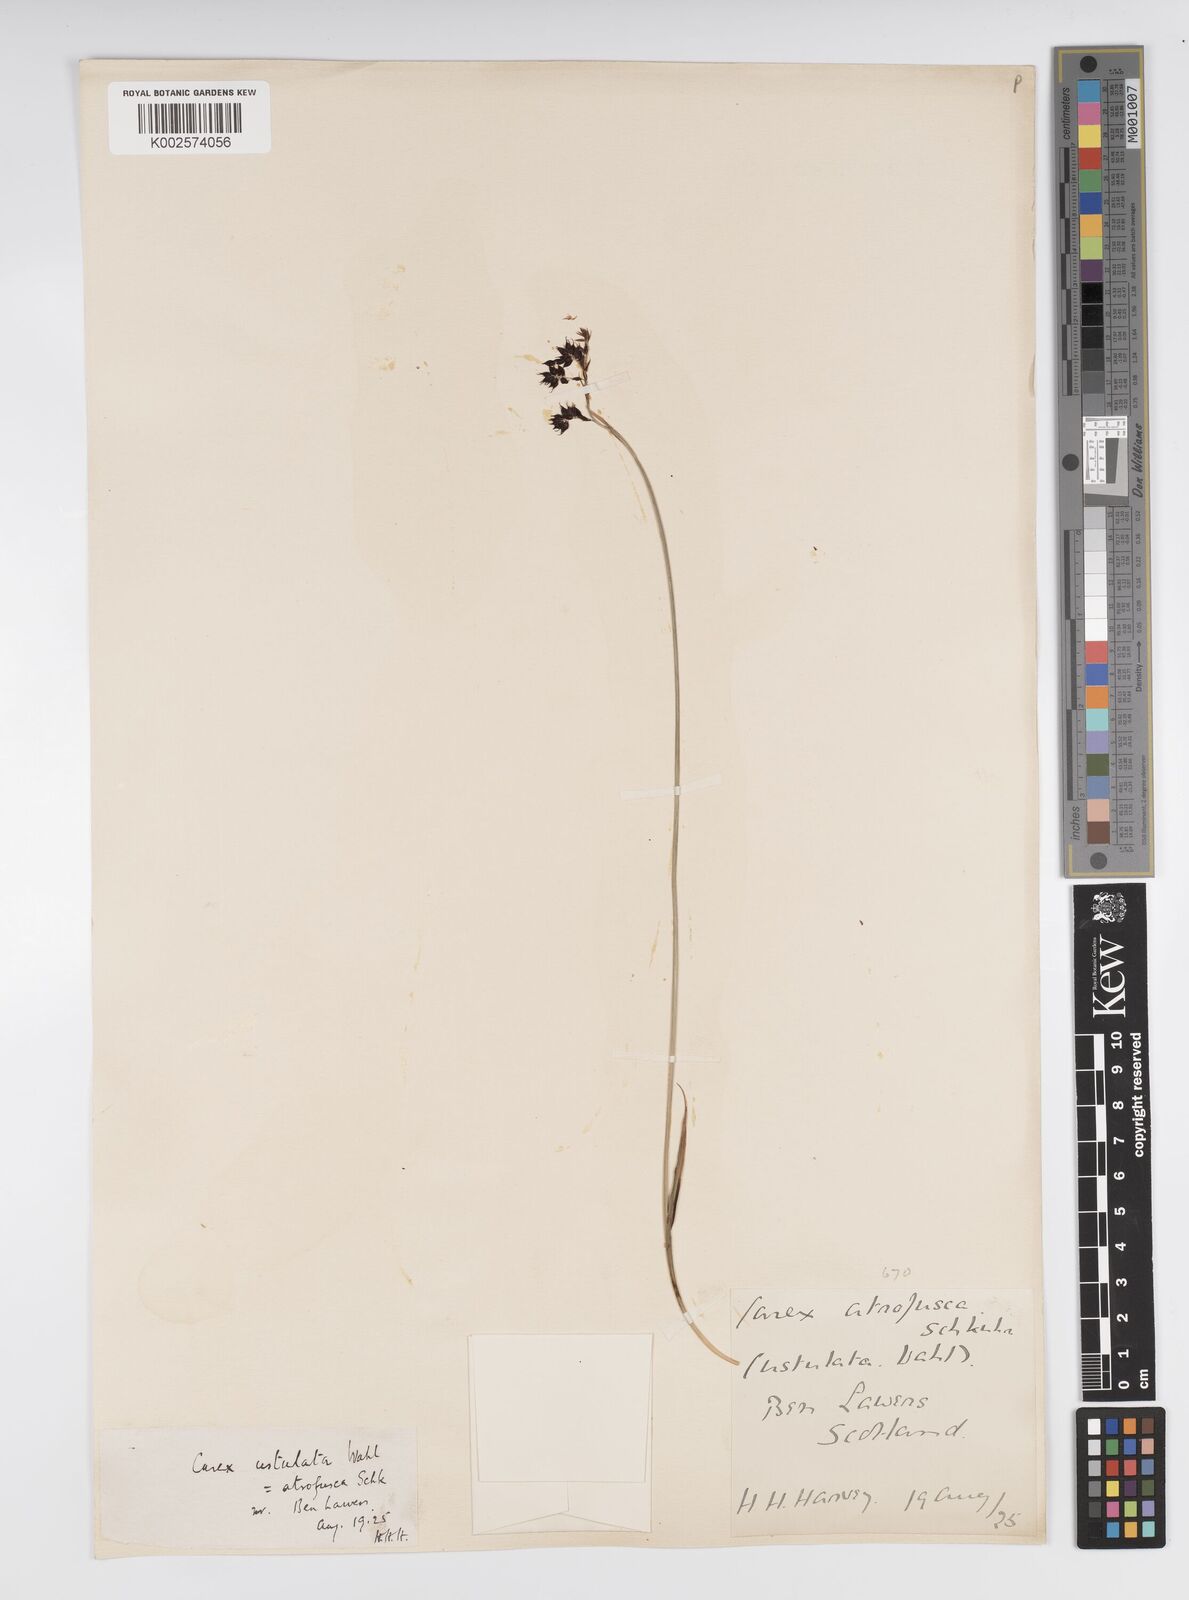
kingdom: Plantae
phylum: Tracheophyta
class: Liliopsida
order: Poales
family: Cyperaceae
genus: Carex
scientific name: Carex atrofusca
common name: Scorched alpine-sedge
